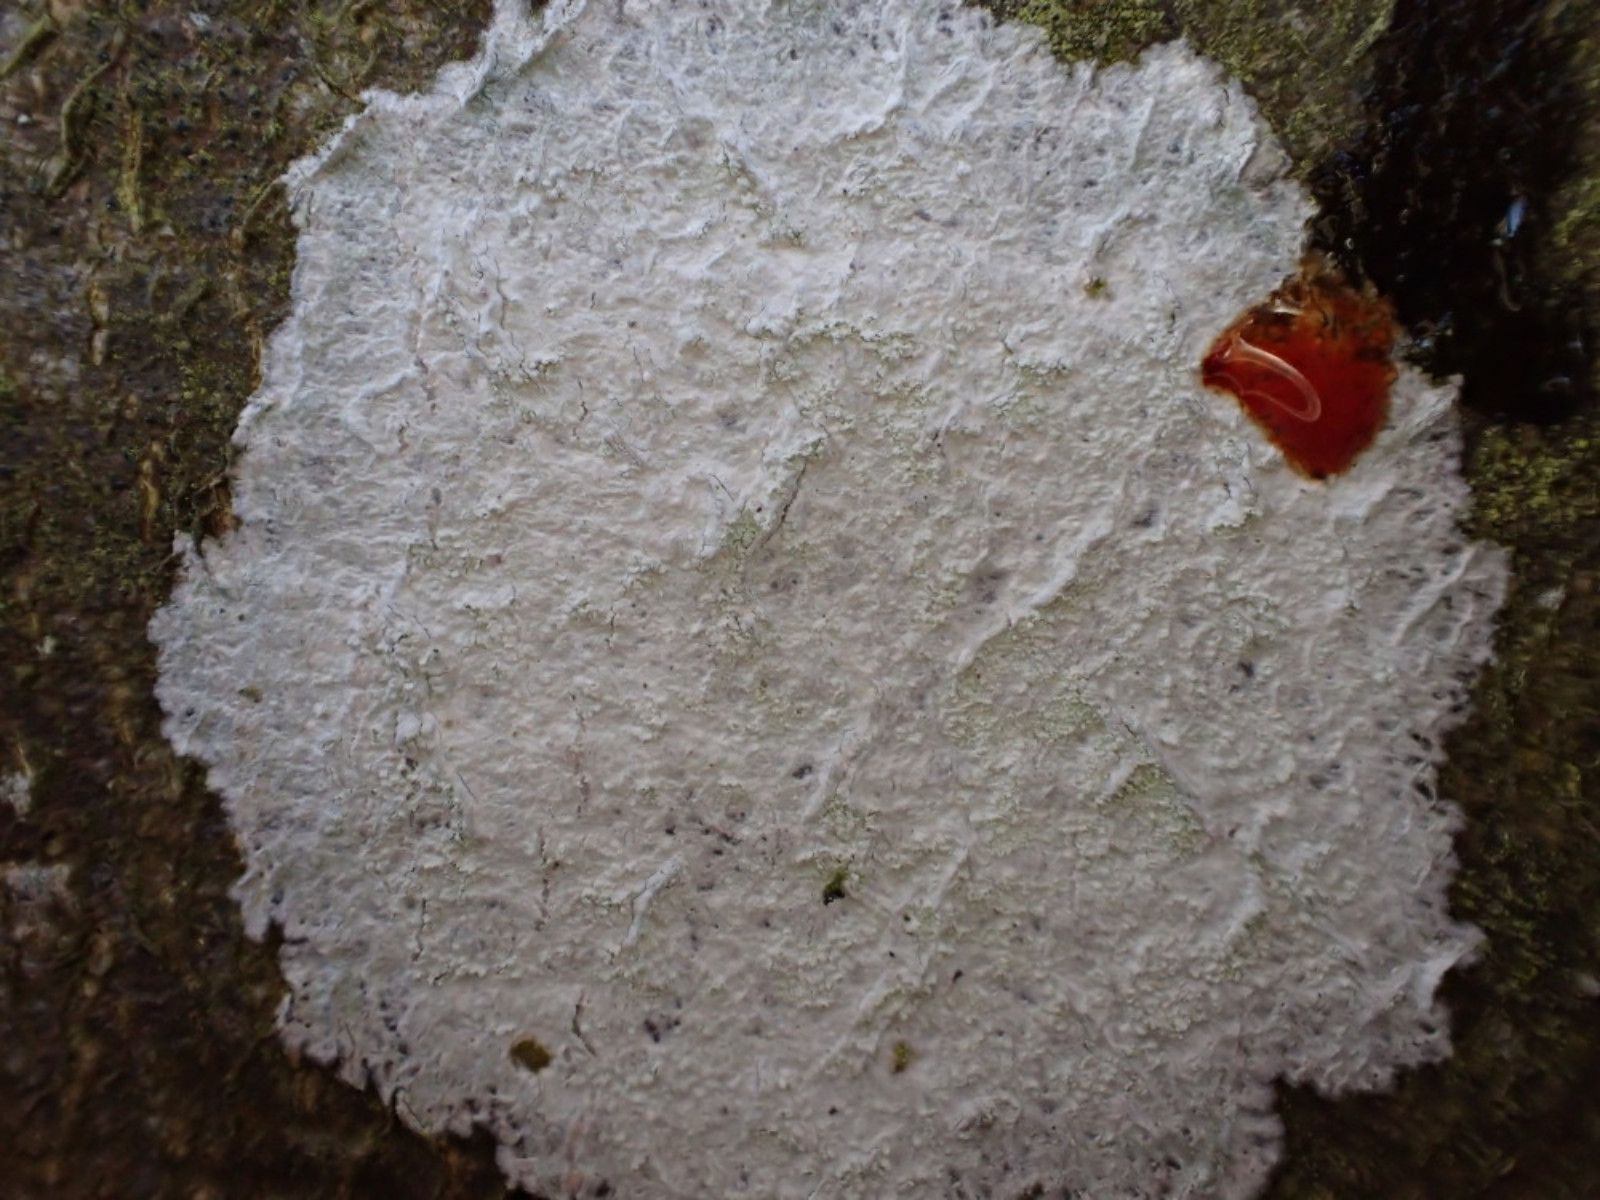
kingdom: Fungi
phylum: Ascomycota
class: Lecanoromycetes
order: Ostropales
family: Phlyctidaceae
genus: Phlyctis
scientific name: Phlyctis argena
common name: almindelig sølvlav
